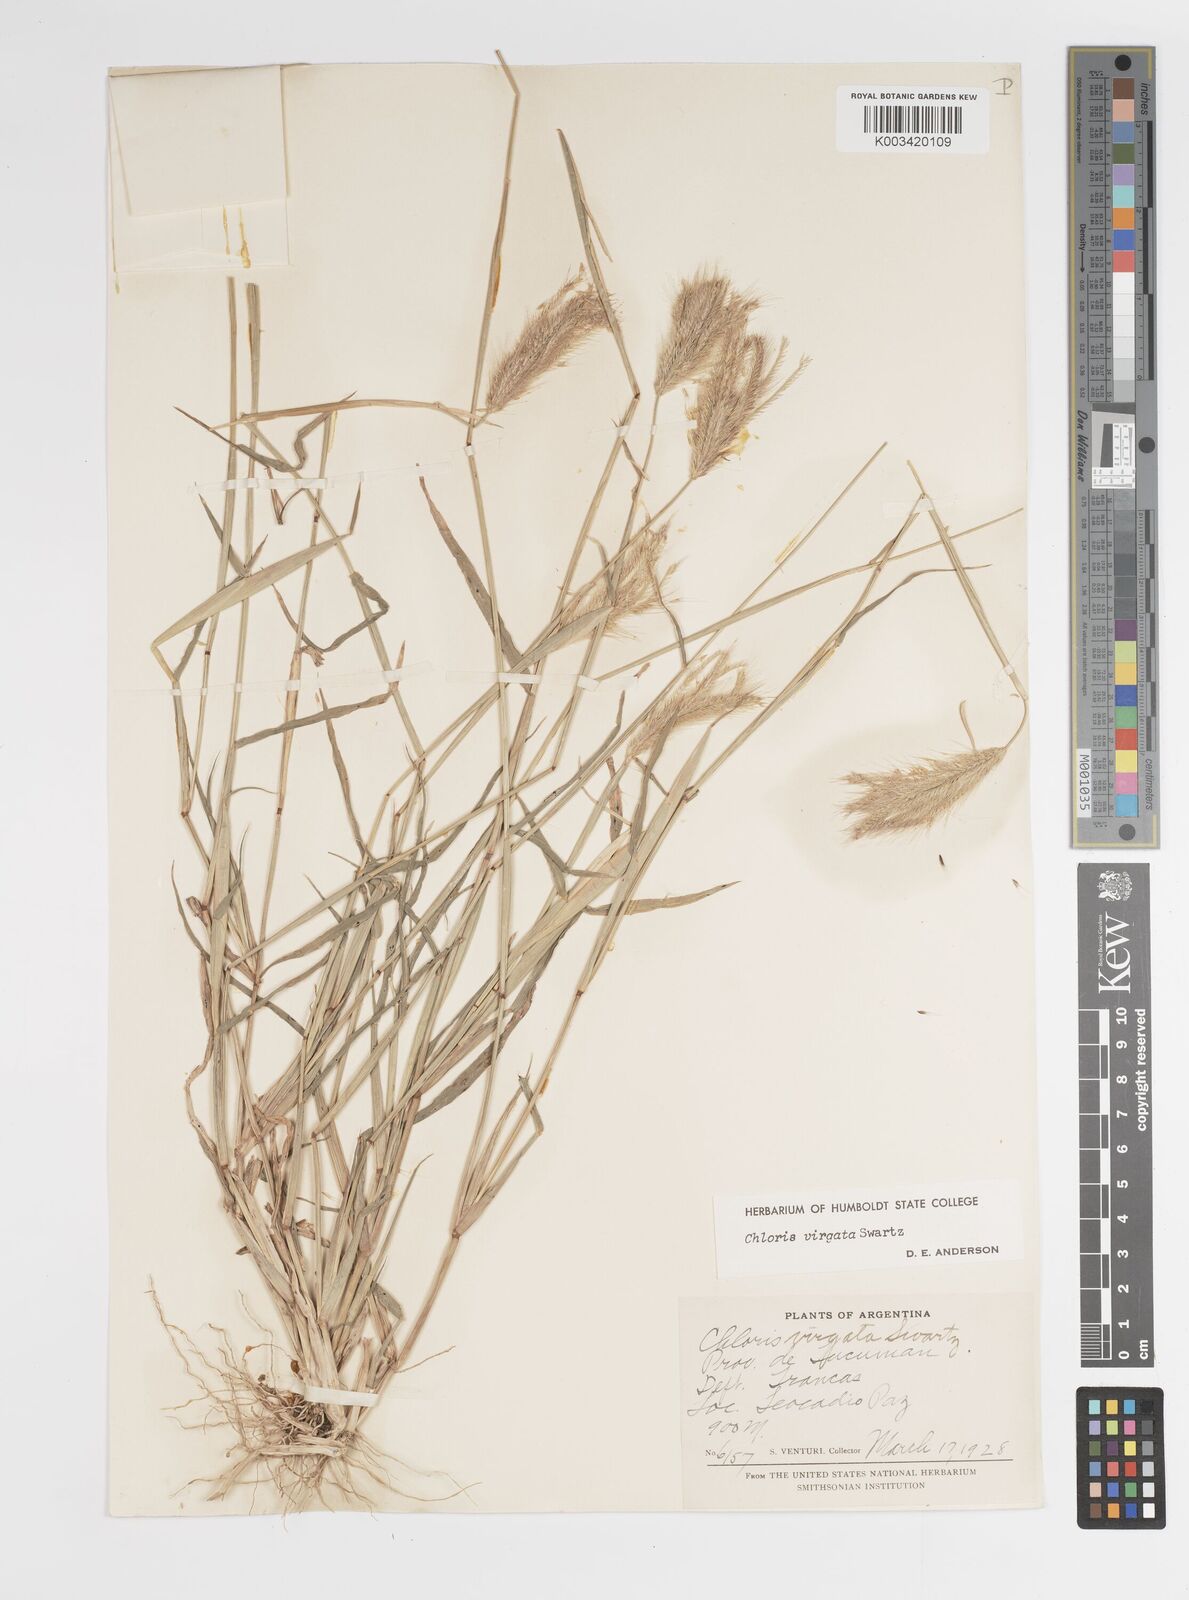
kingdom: Plantae
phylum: Tracheophyta
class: Liliopsida
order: Poales
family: Poaceae
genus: Chloris
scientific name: Chloris virgata
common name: Feathery rhodes-grass
